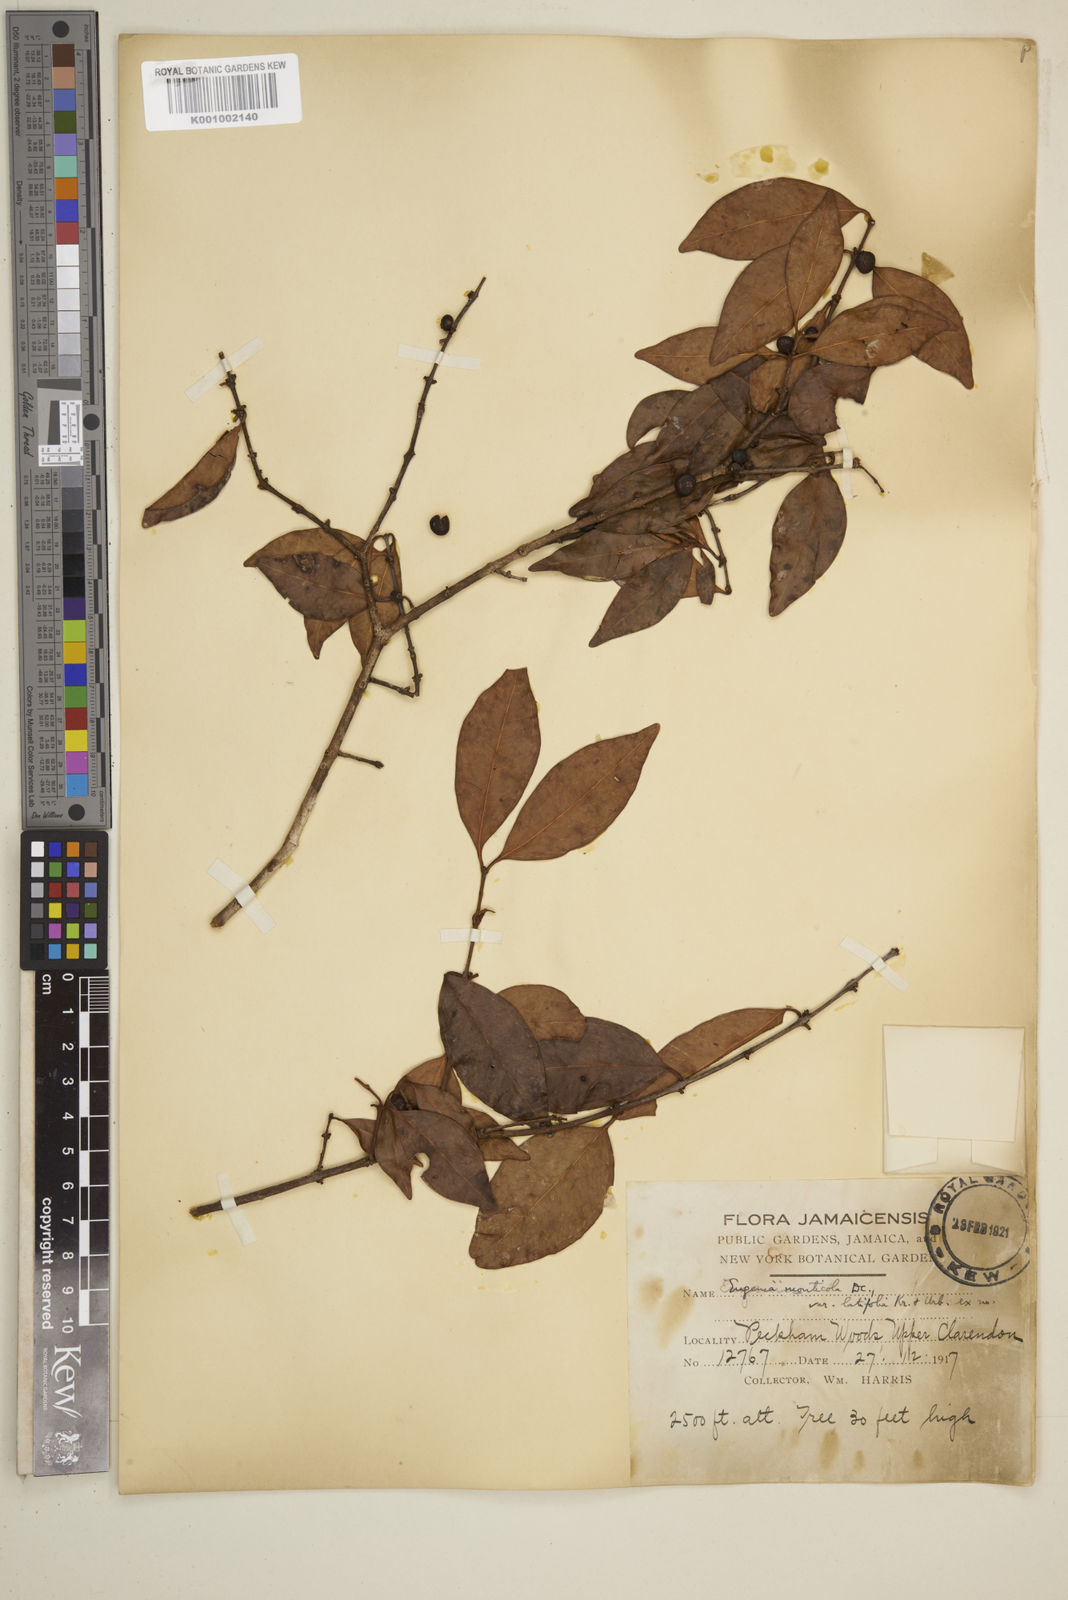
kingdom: Plantae
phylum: Tracheophyta
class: Magnoliopsida
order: Myrtales
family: Myrtaceae
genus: Eugenia
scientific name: Eugenia monticola
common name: Birds berry
